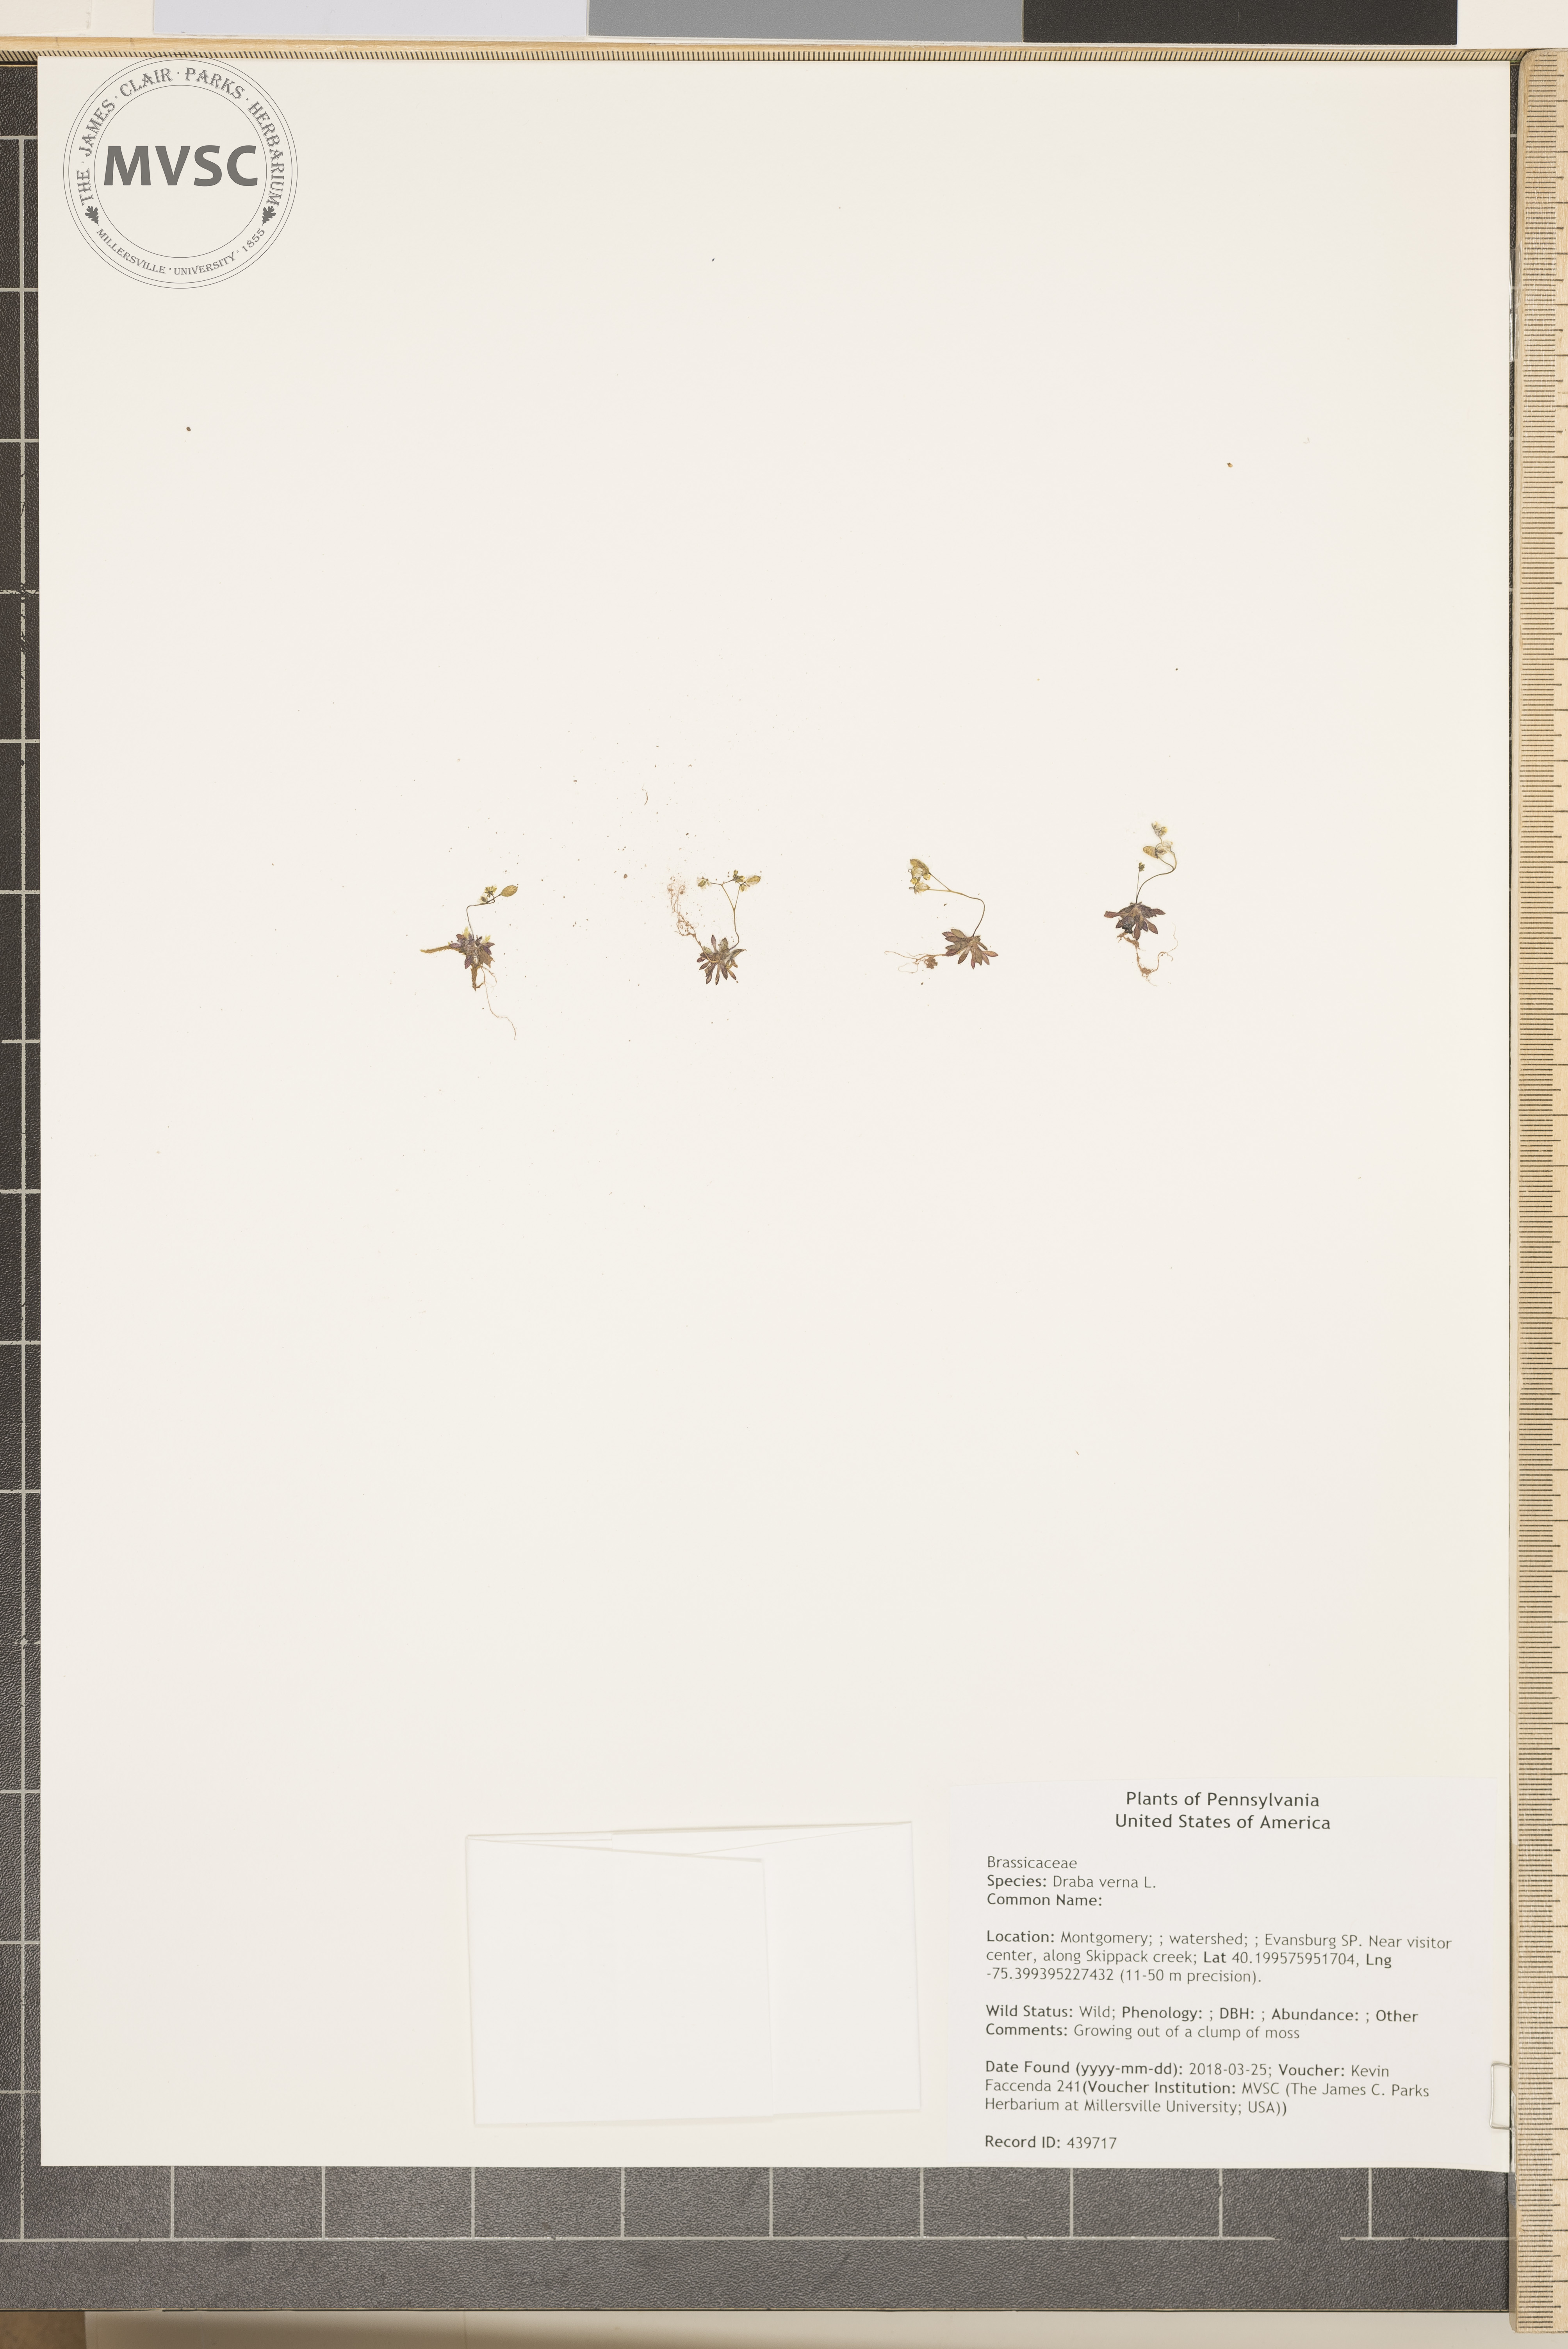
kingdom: Plantae
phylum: Tracheophyta
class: Magnoliopsida
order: Brassicales
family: Brassicaceae
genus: Draba
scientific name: Draba verna
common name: Spring draba
